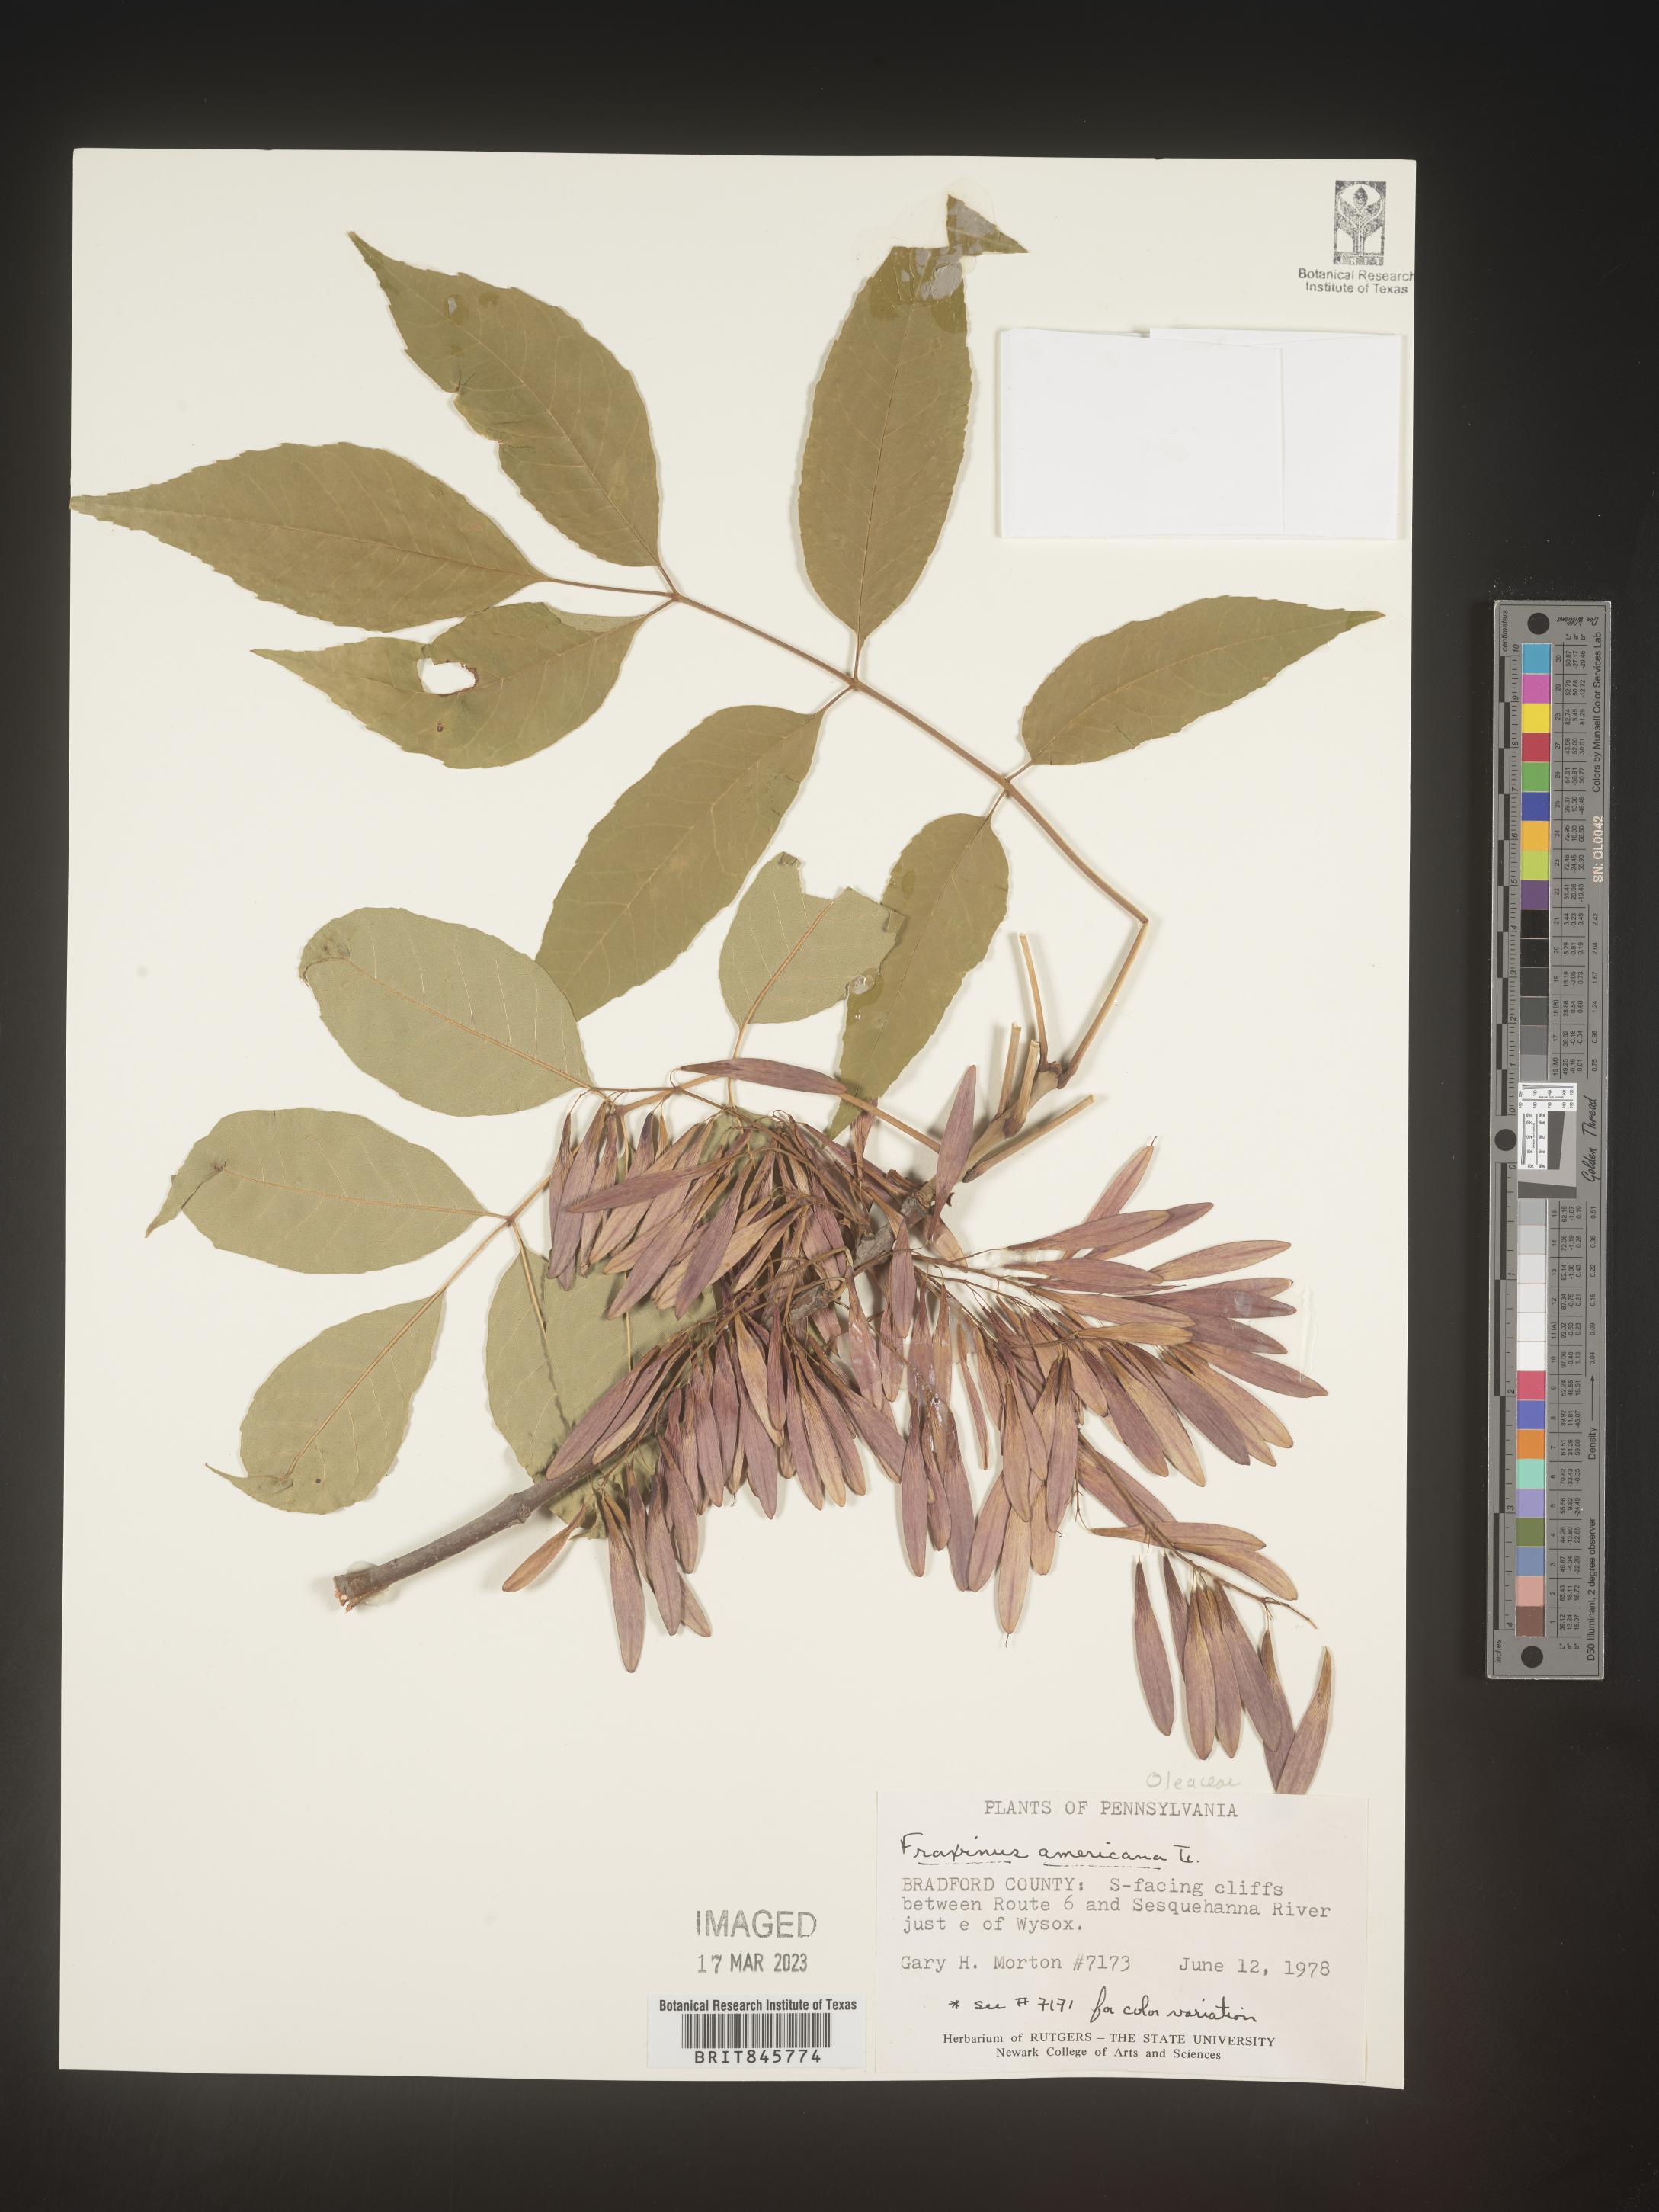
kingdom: Plantae
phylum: Tracheophyta
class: Magnoliopsida
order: Lamiales
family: Oleaceae
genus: Fraxinus
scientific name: Fraxinus americana
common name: White ash
